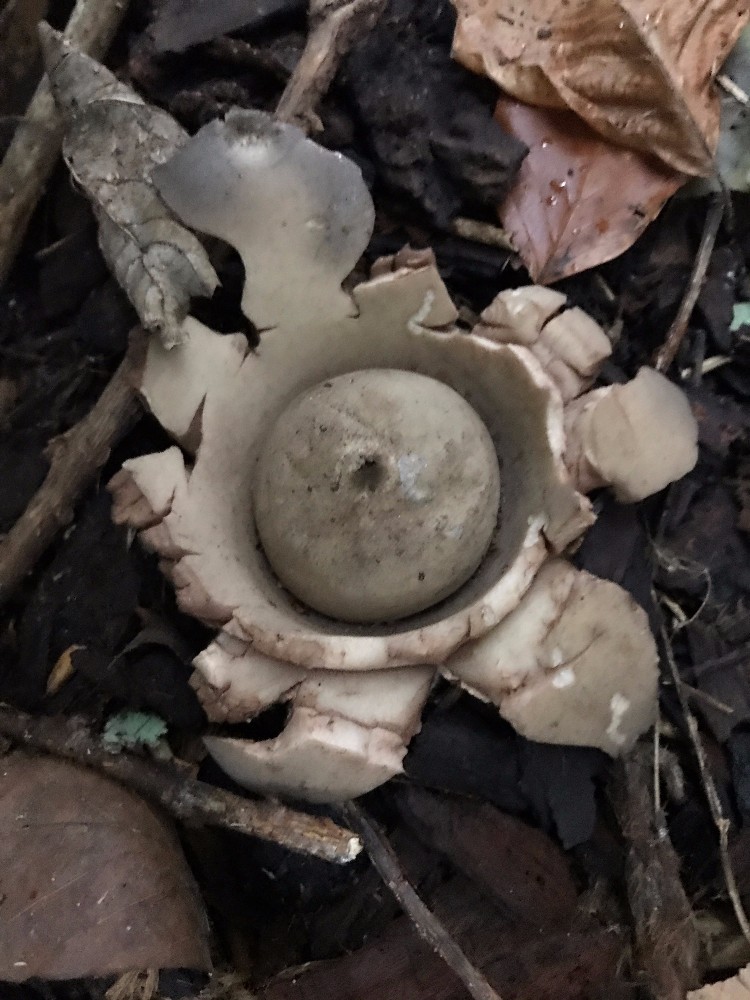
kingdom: Fungi
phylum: Basidiomycota
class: Agaricomycetes
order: Geastrales
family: Geastraceae
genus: Geastrum
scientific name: Geastrum michelianum
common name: kødet stjernebold
